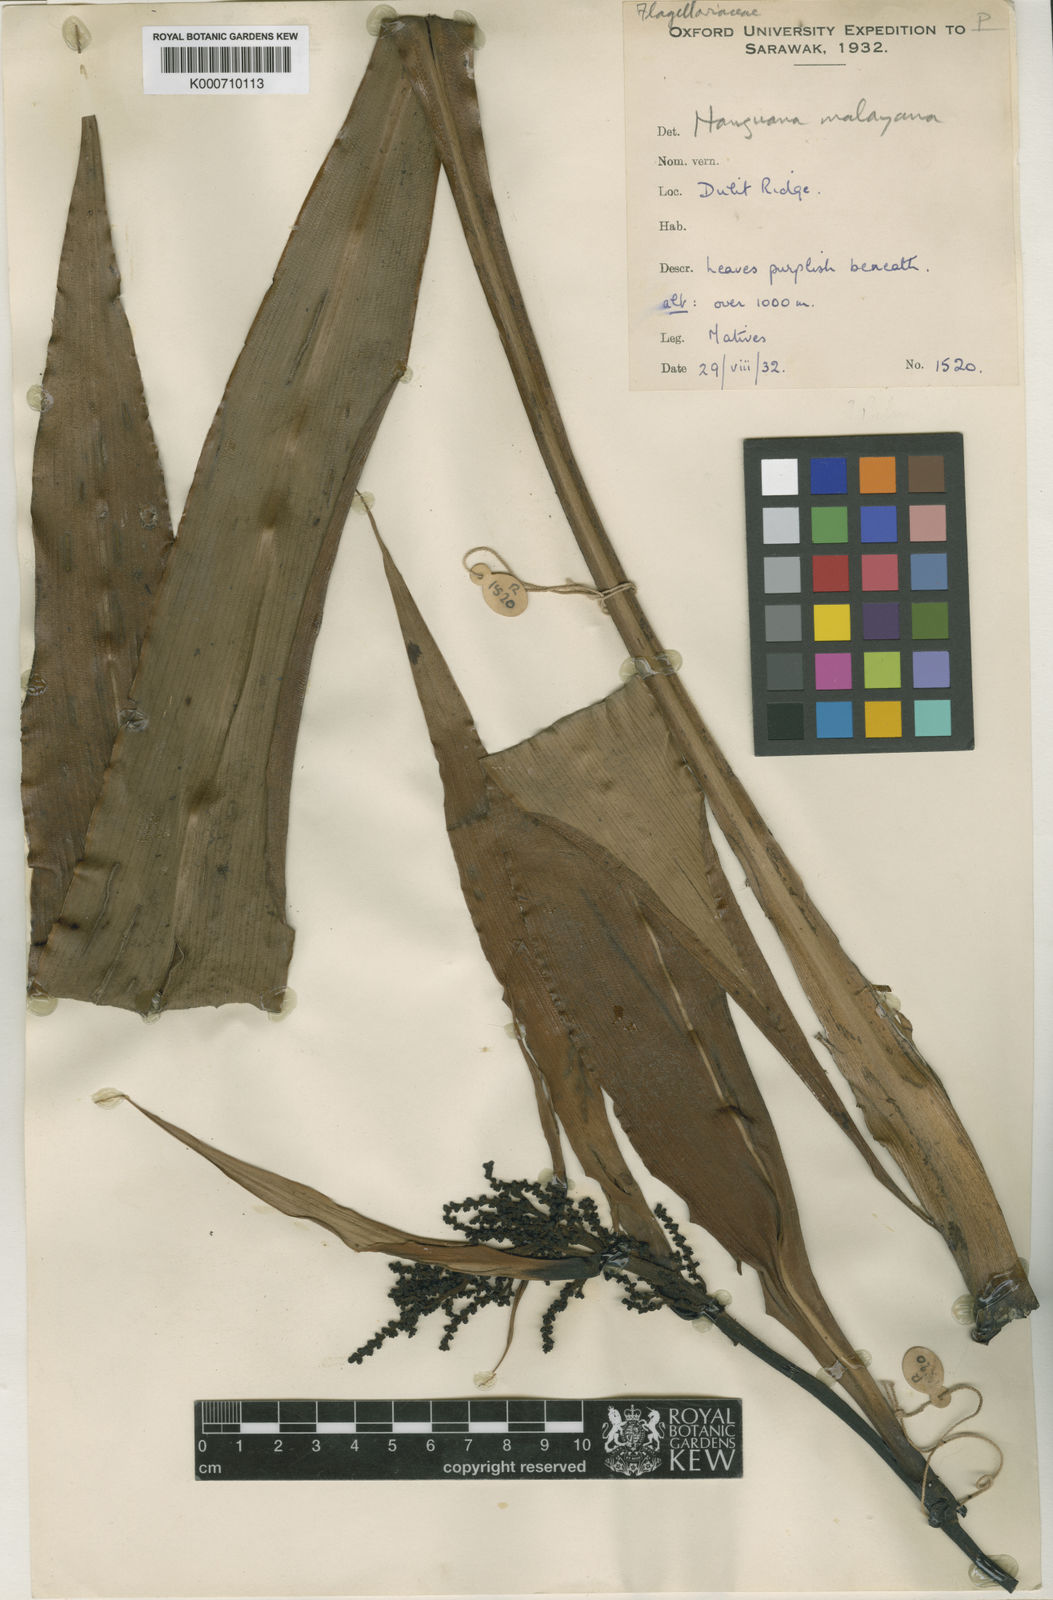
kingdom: Plantae
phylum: Tracheophyta
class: Liliopsida
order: Commelinales
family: Hanguanaceae
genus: Hanguana
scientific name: Hanguana malayana
